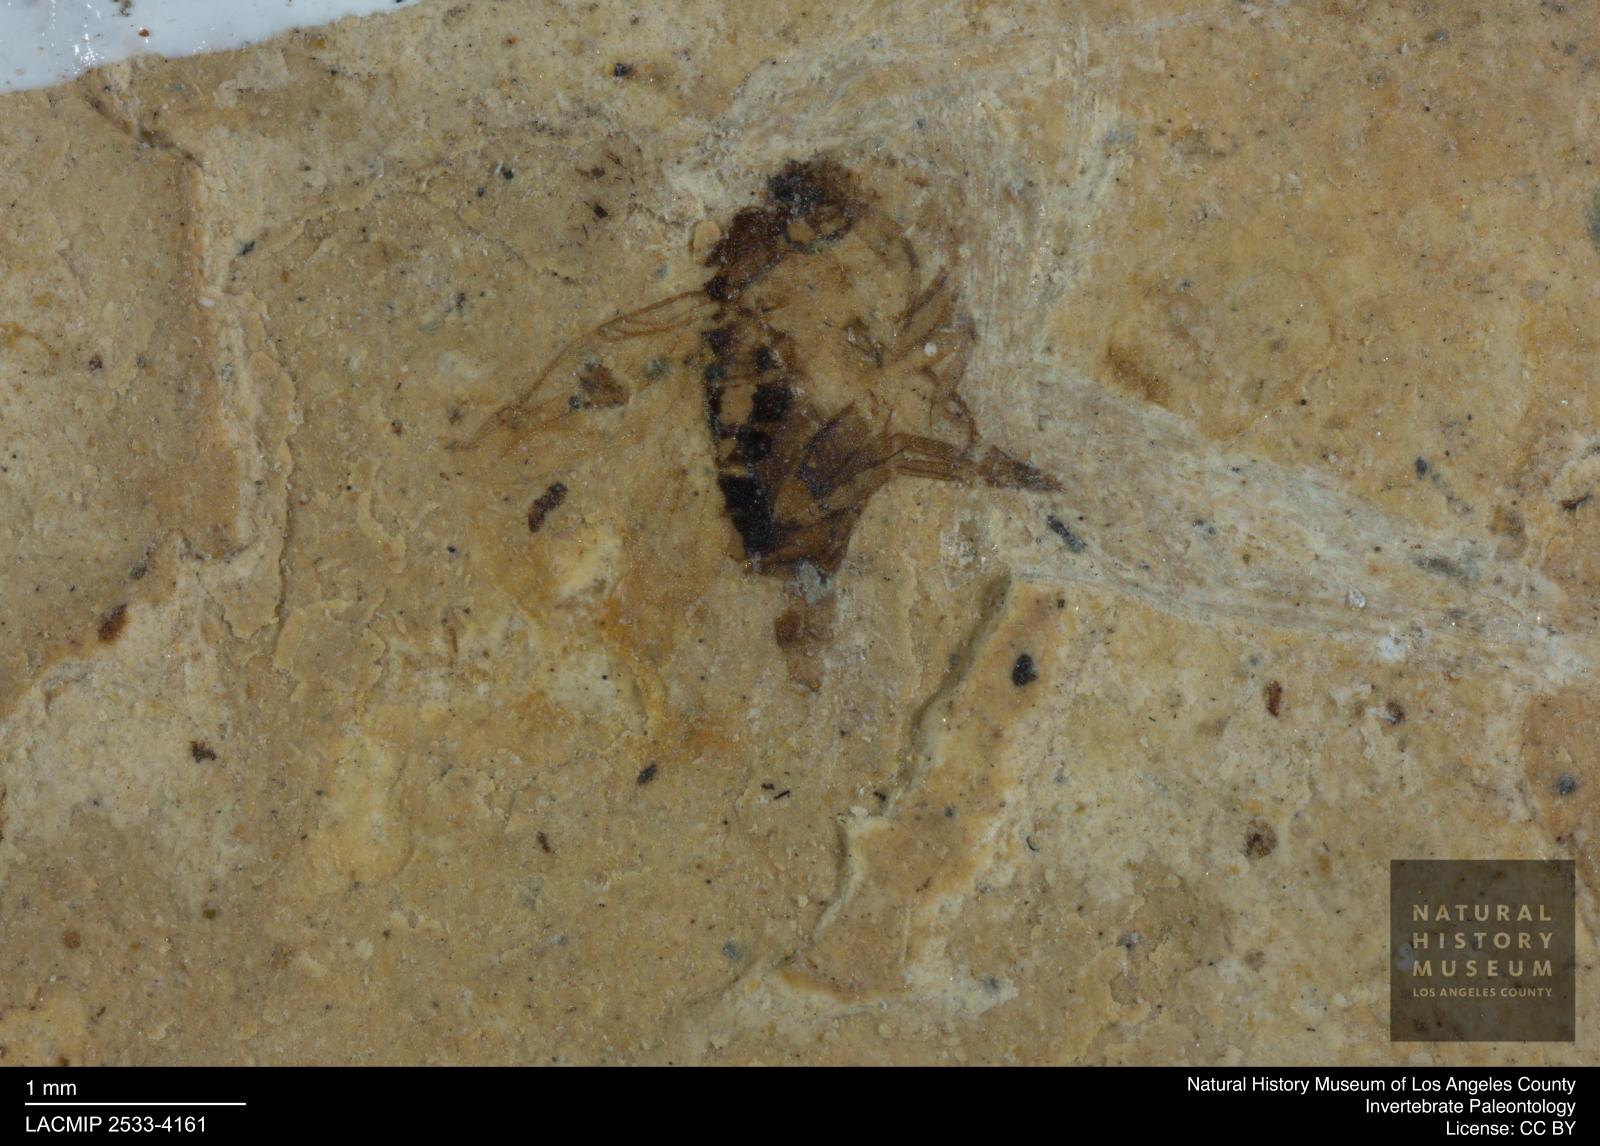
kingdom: Animalia
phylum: Arthropoda
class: Insecta
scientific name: Insecta
